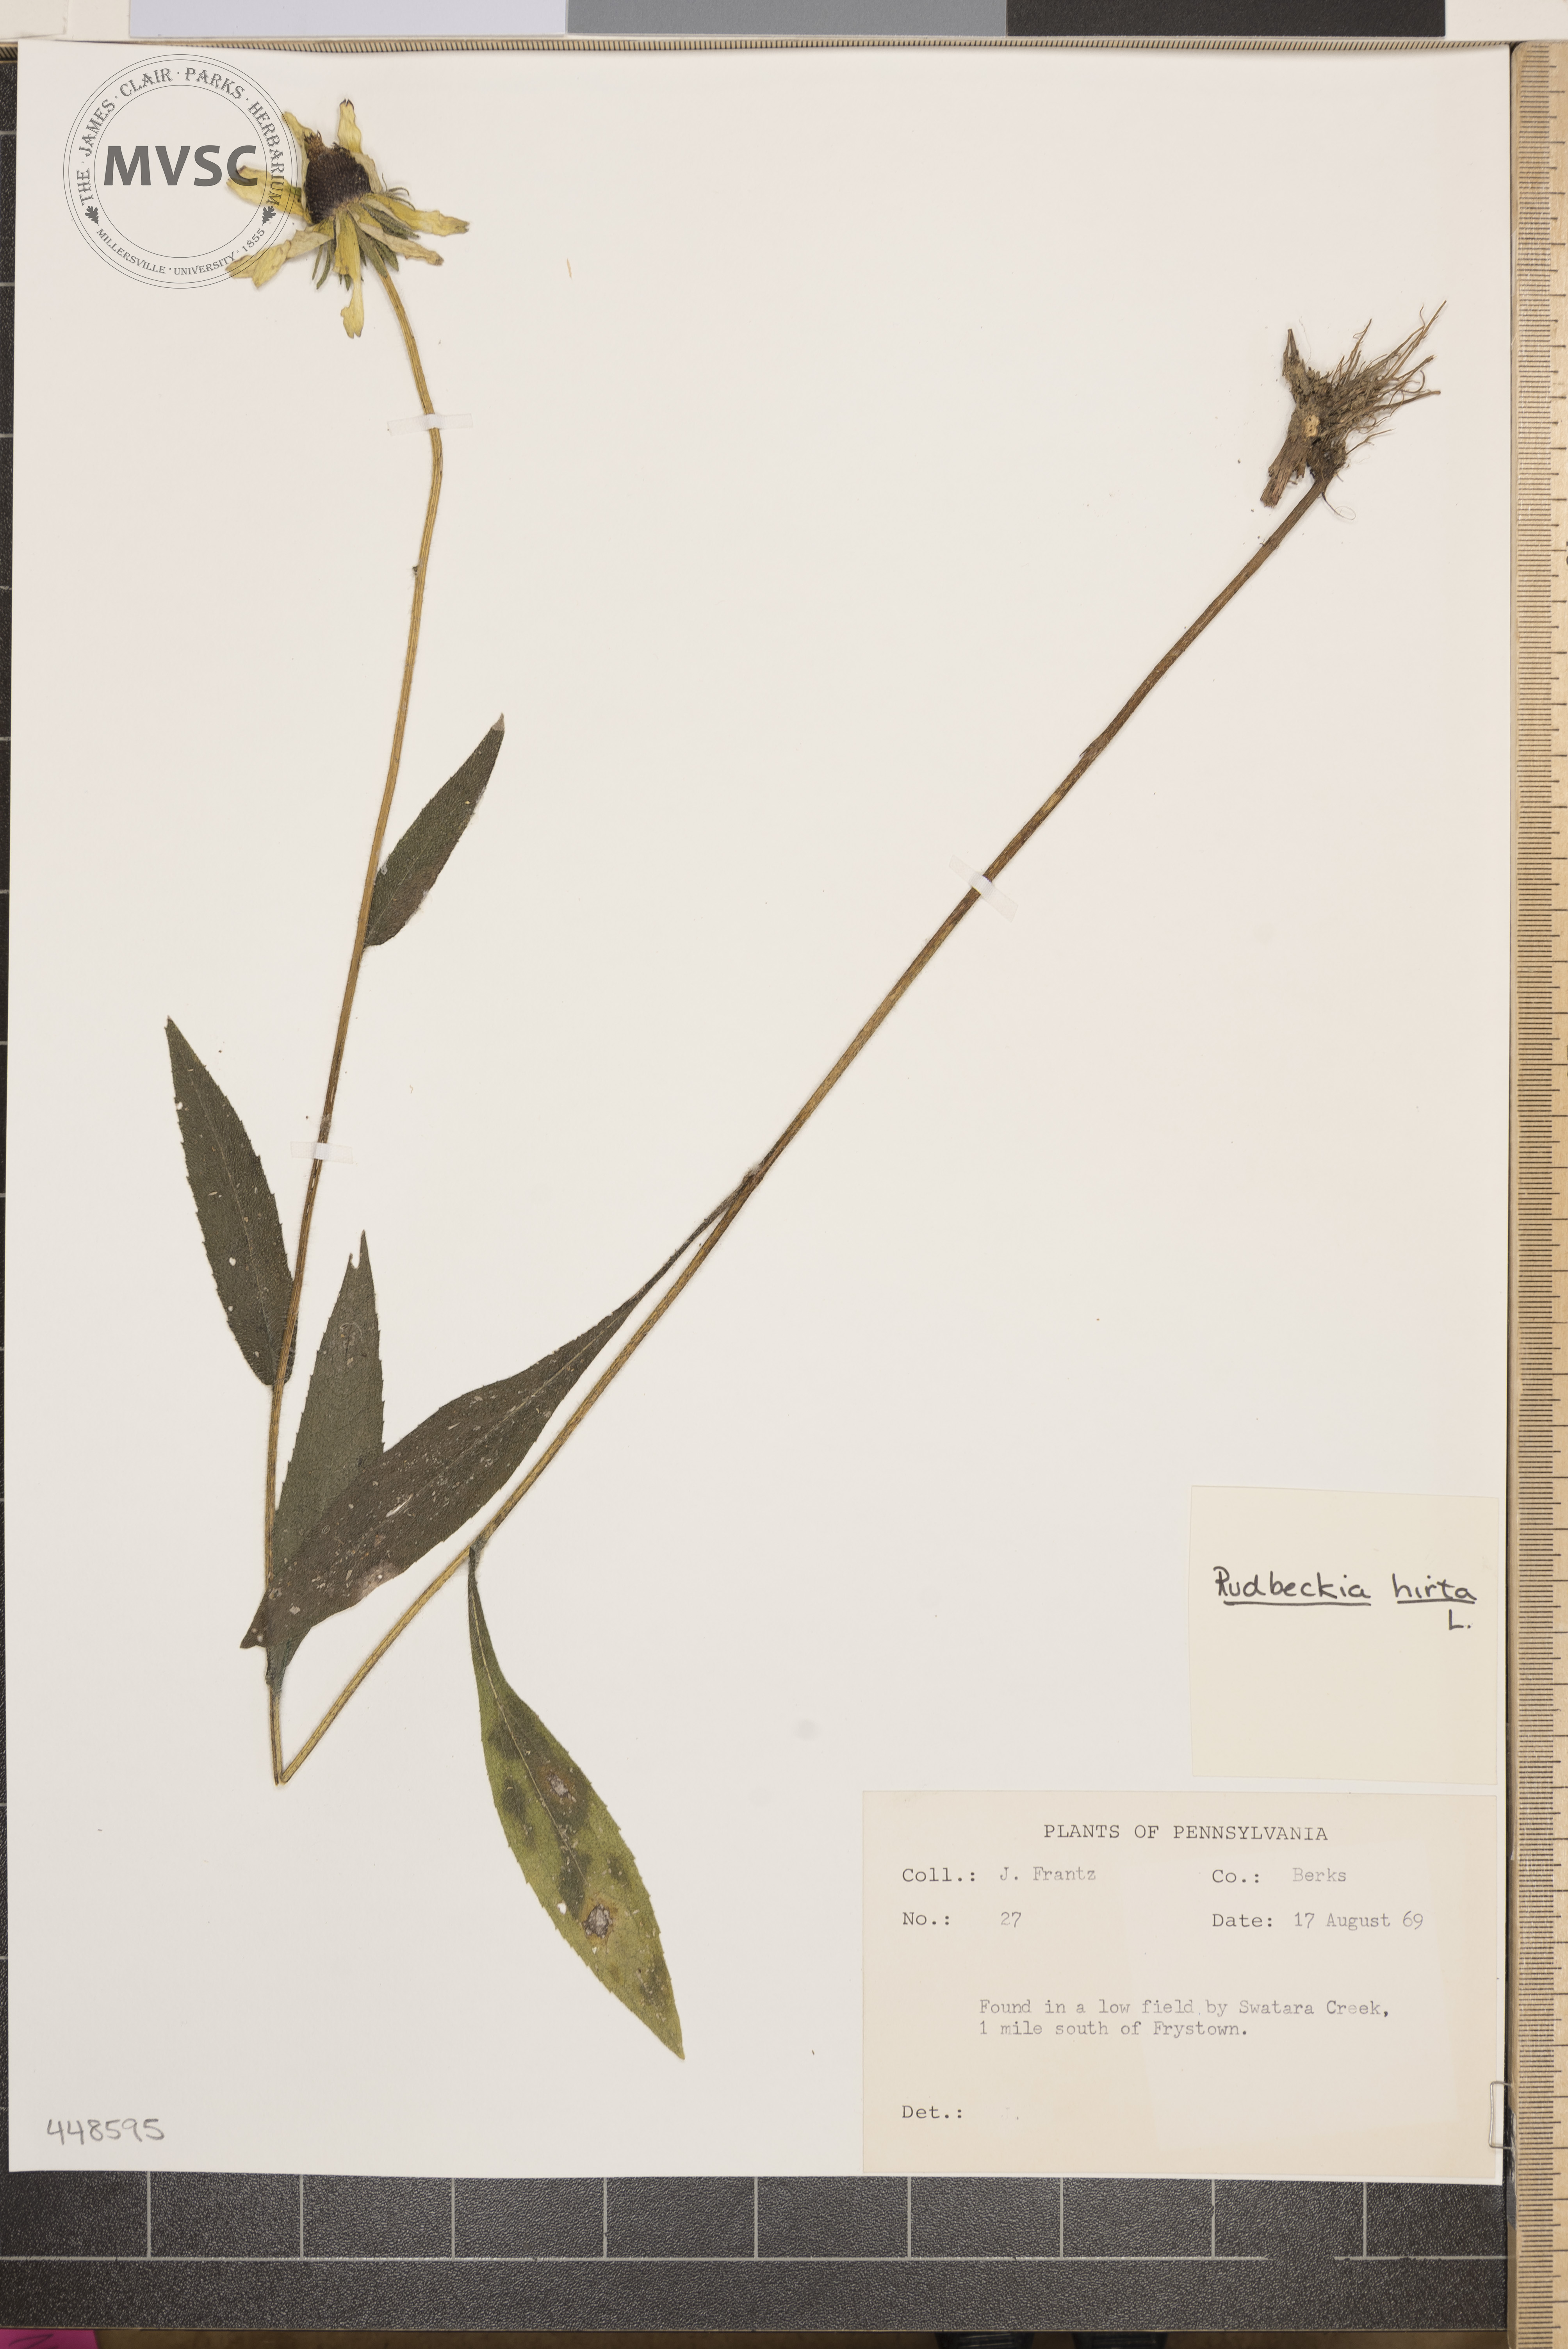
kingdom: Plantae
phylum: Tracheophyta
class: Magnoliopsida
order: Asterales
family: Asteraceae
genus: Rudbeckia
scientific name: Rudbeckia hirta
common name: Black-eyed-susan
